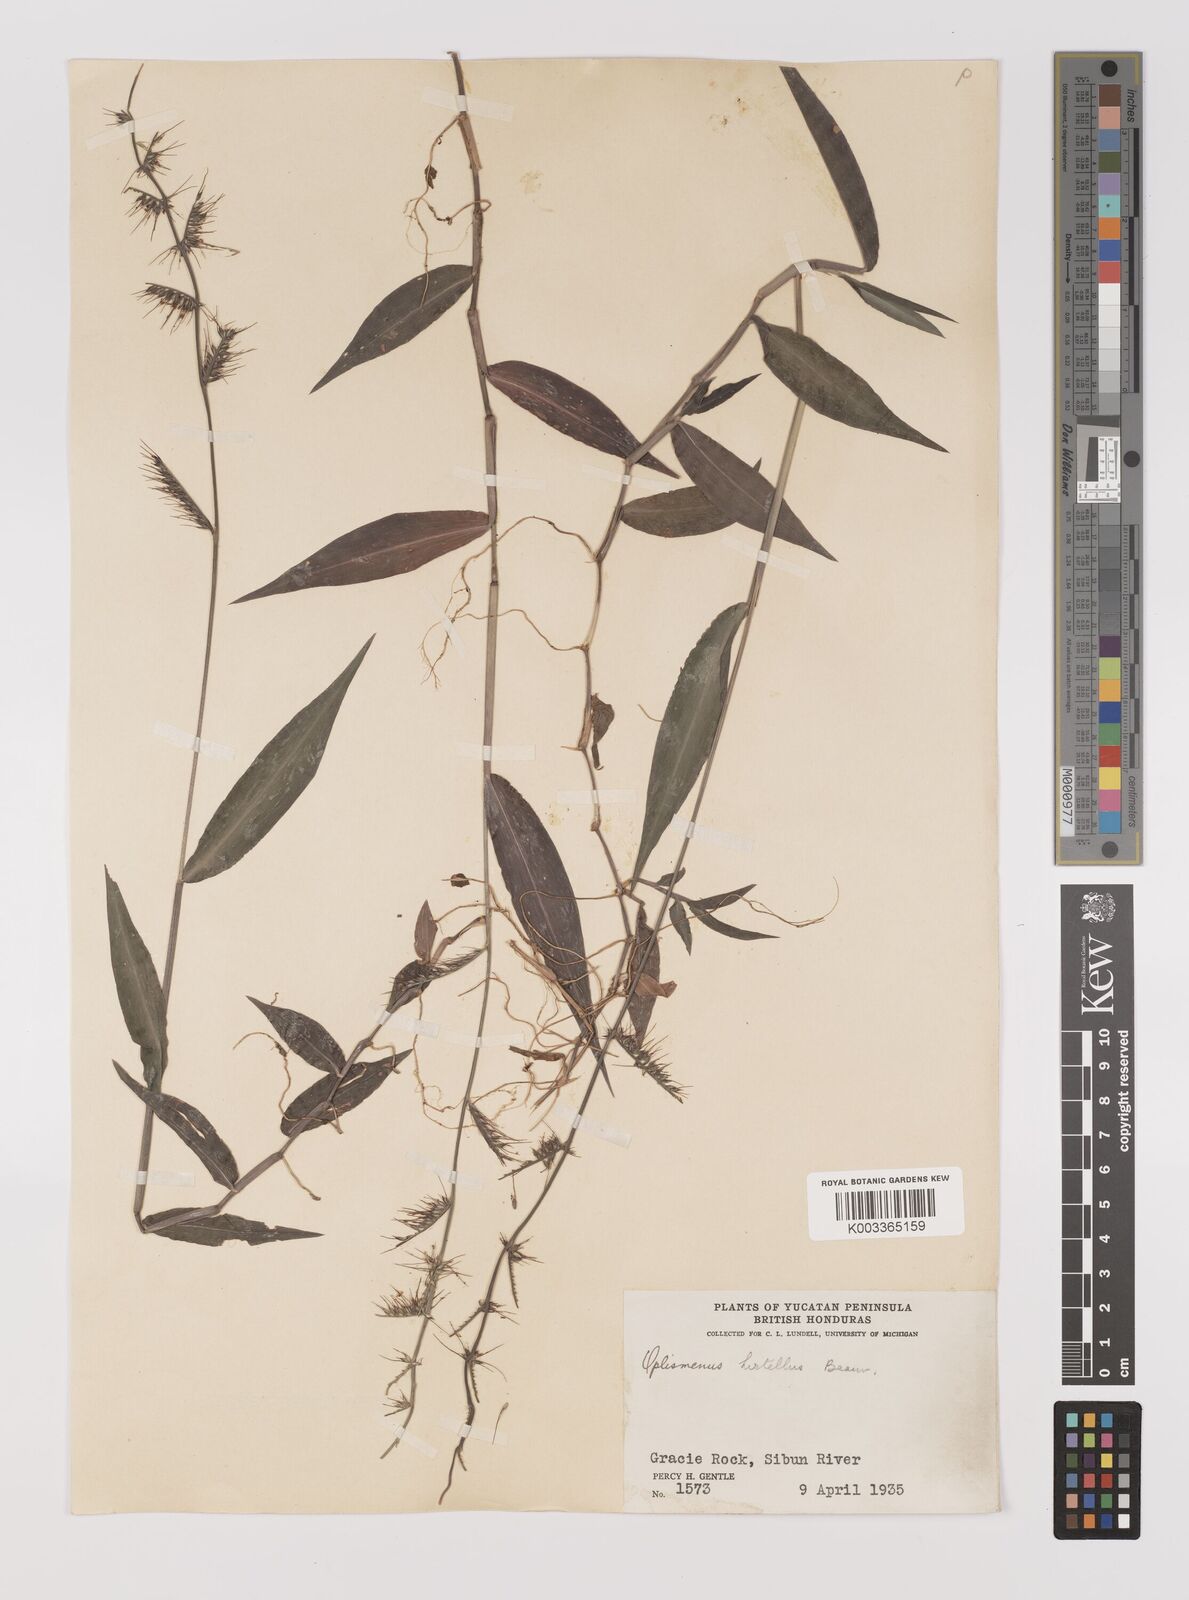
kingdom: Plantae
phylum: Tracheophyta
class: Liliopsida
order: Poales
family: Poaceae
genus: Oplismenus
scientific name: Oplismenus hirtellus
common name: Basketgrass
